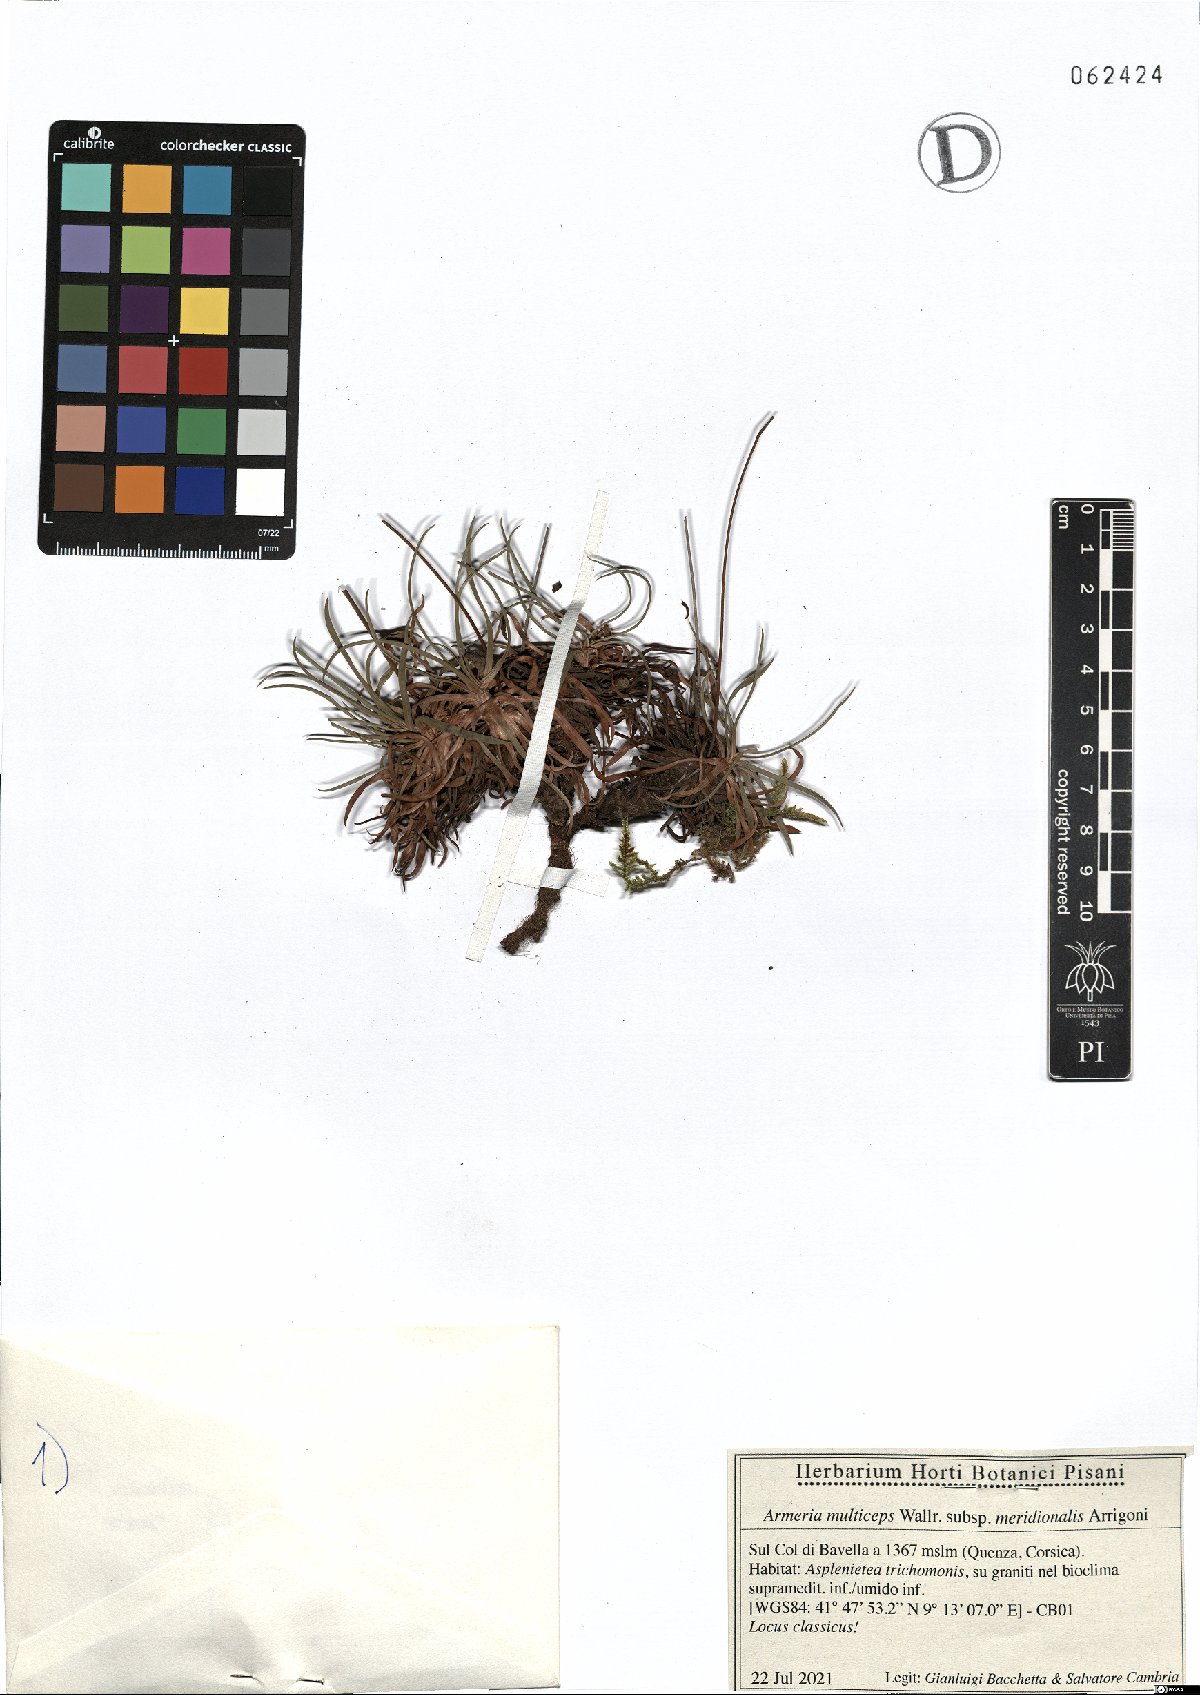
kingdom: Plantae
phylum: Tracheophyta
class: Magnoliopsida
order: Caryophyllales
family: Plumbaginaceae
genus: Armeria
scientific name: Armeria multiceps
